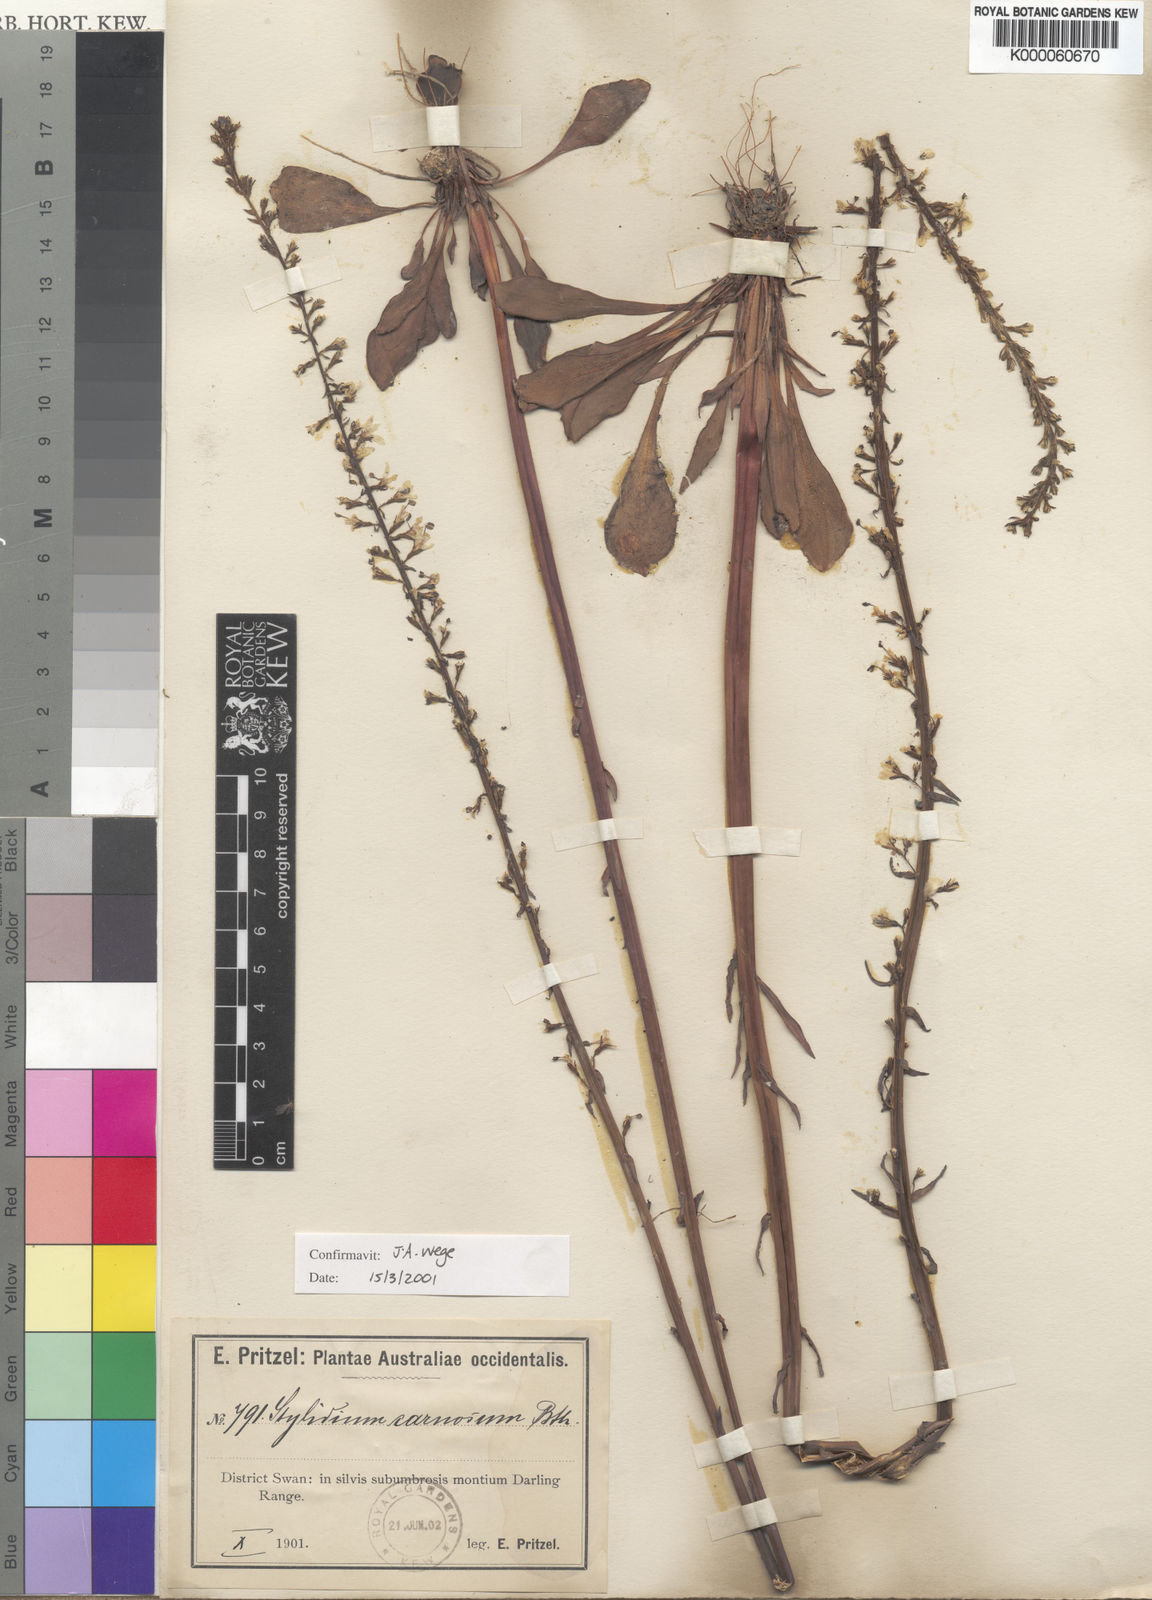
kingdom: Plantae
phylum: Tracheophyta
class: Magnoliopsida
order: Asterales
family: Stylidiaceae
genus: Stylidium
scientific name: Stylidium carnosum
